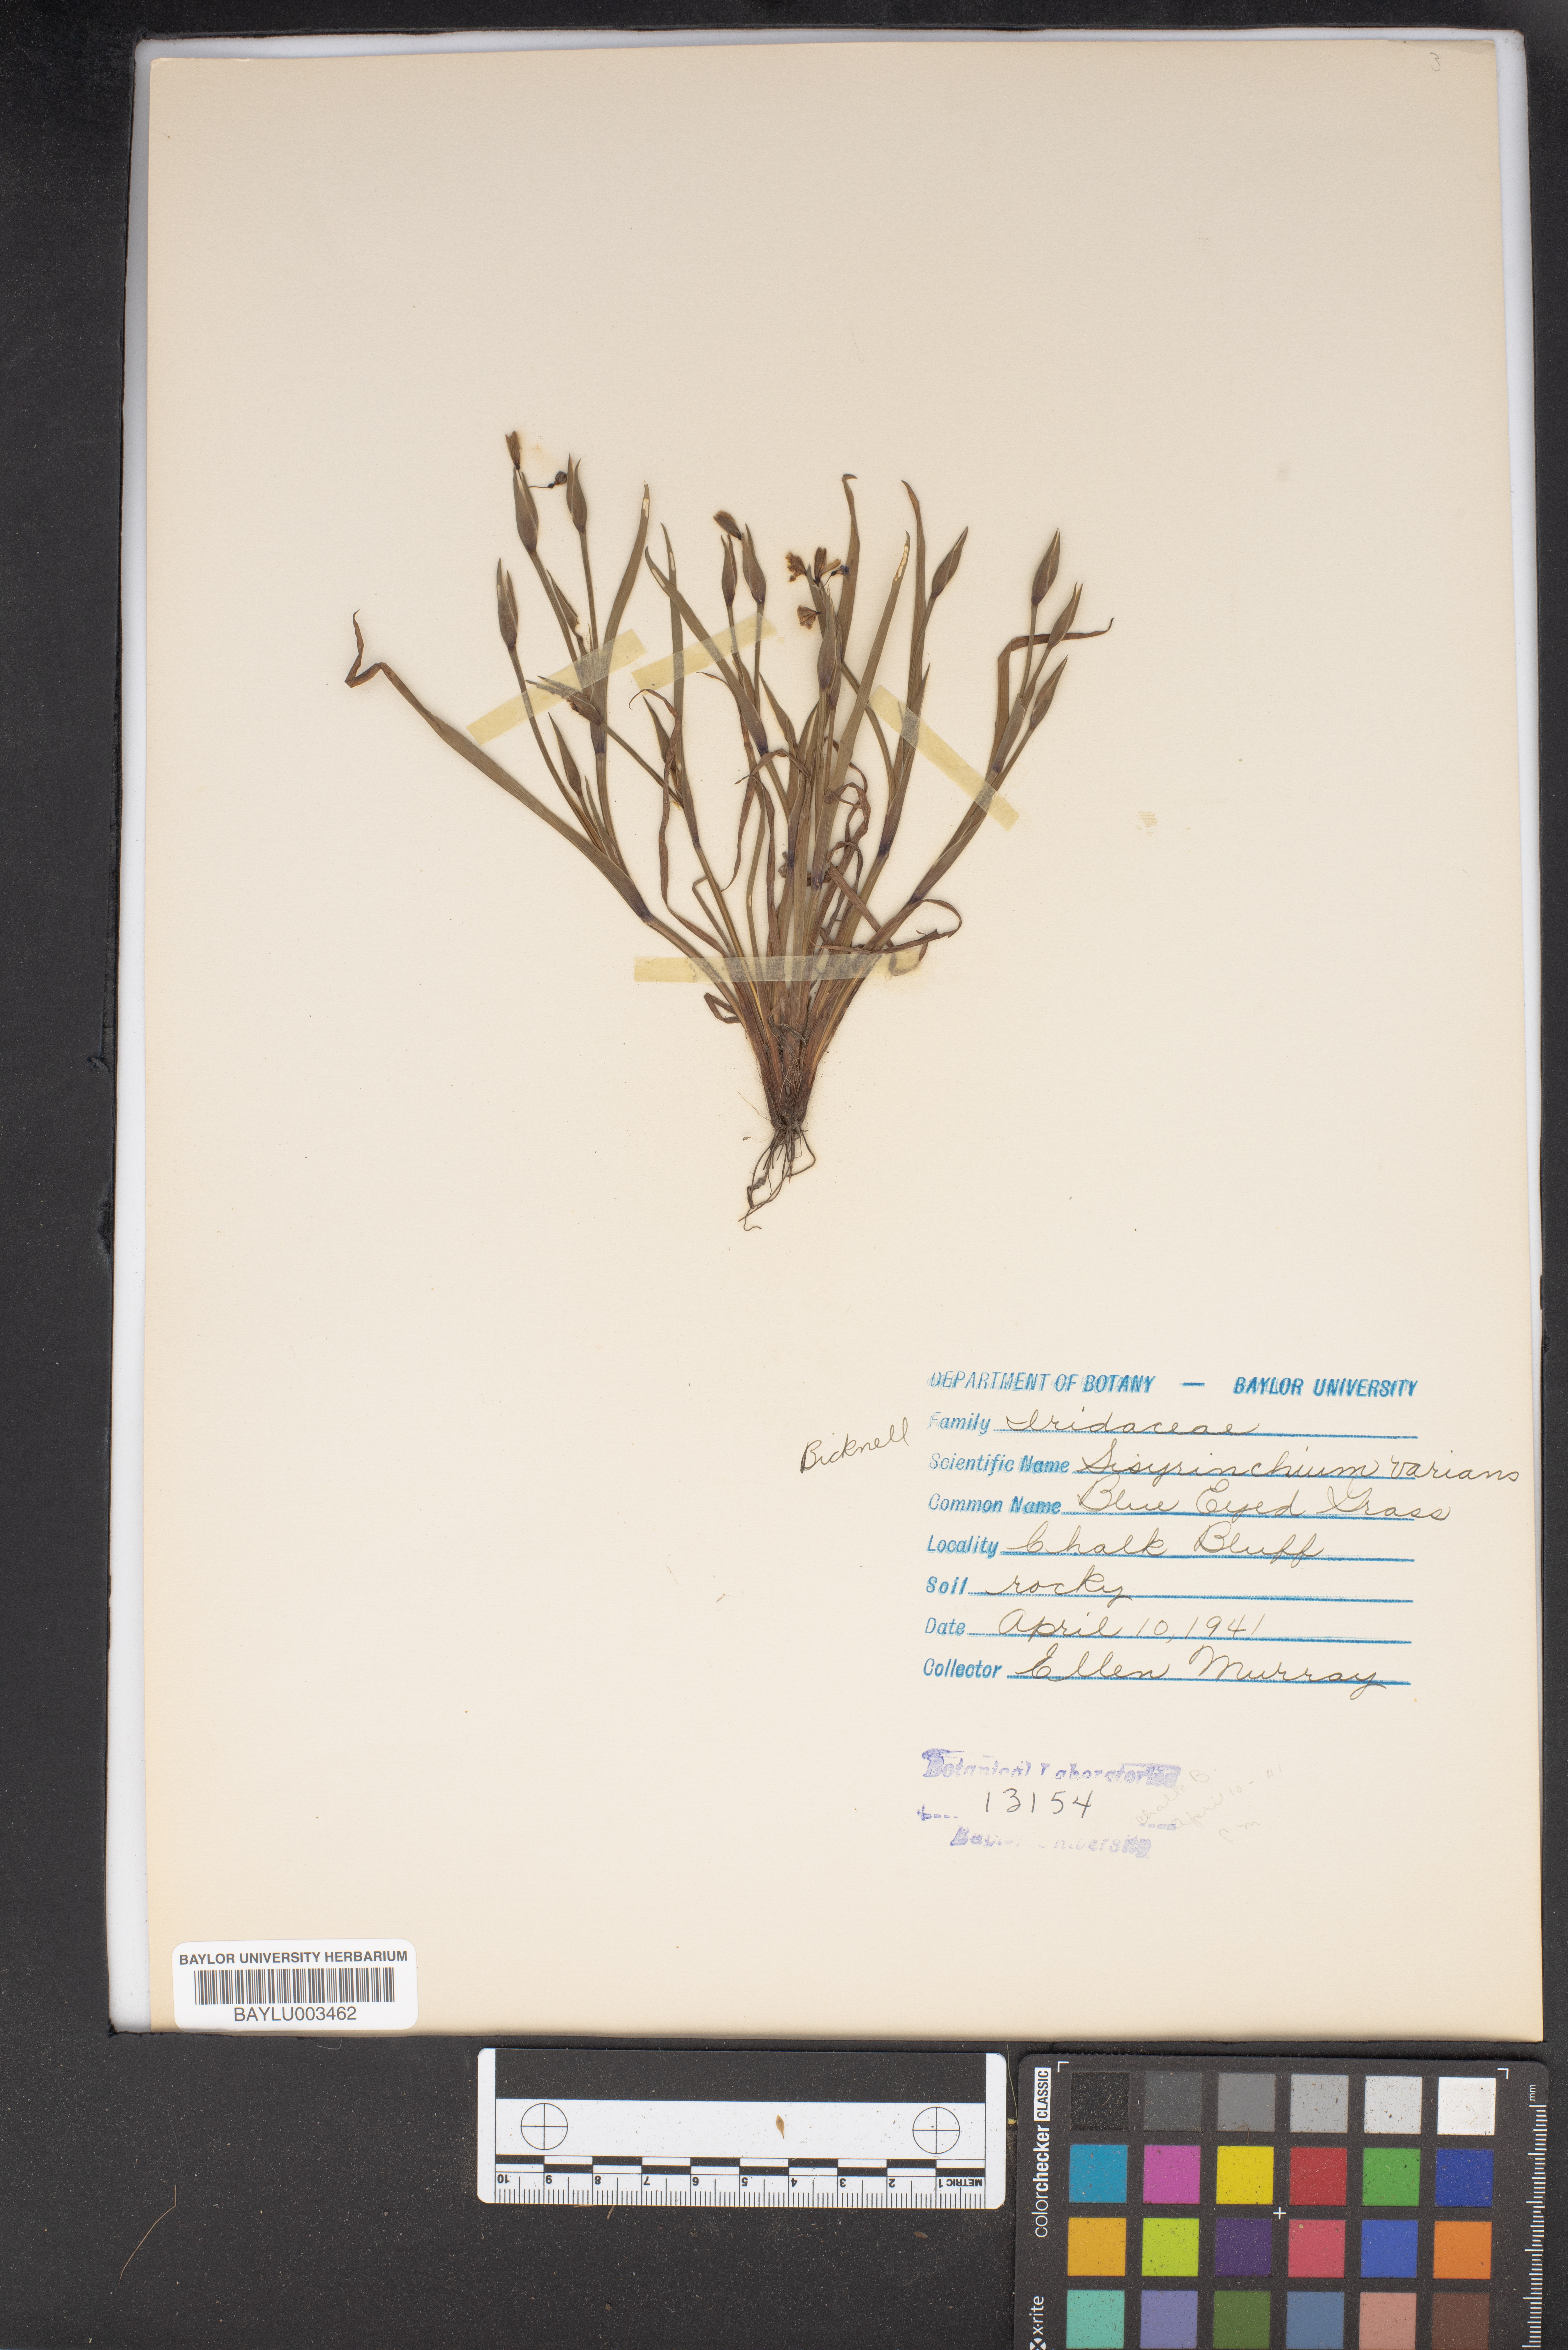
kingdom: Plantae
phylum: Tracheophyta
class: Liliopsida
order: Asparagales
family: Iridaceae
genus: Sisyrinchium
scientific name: Sisyrinchium pruinosum
